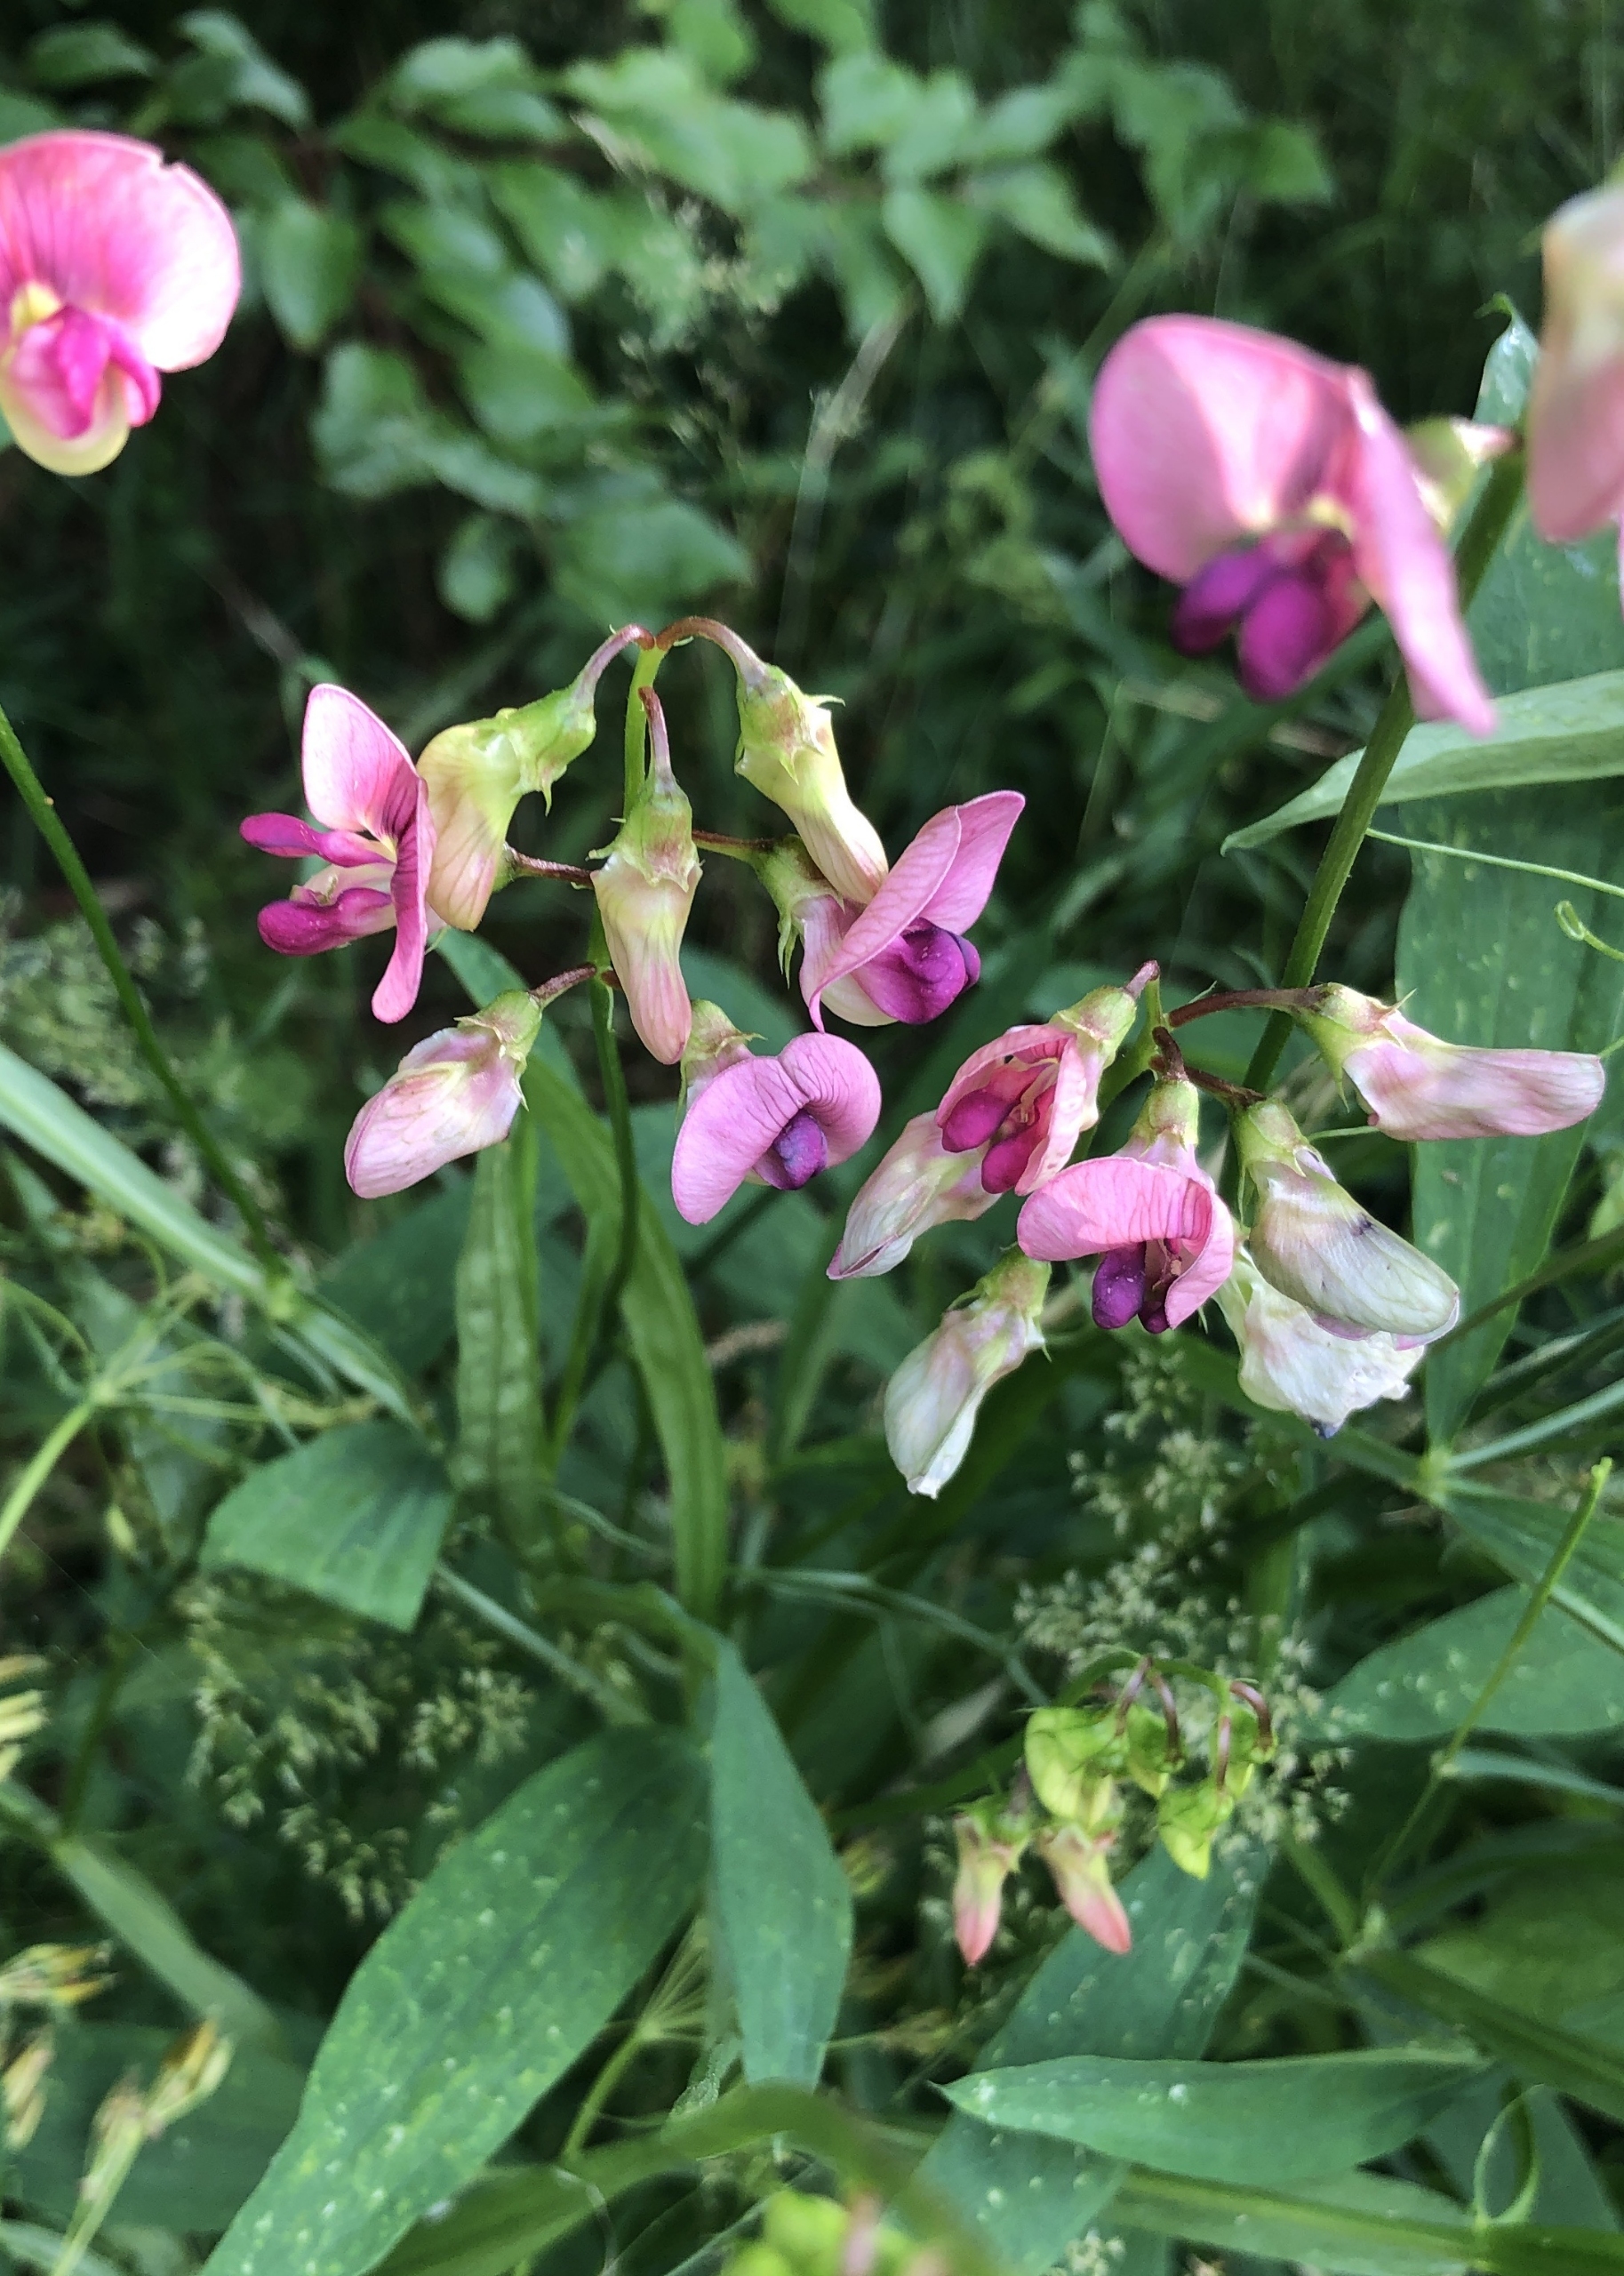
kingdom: Plantae
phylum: Tracheophyta
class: Magnoliopsida
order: Fabales
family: Fabaceae
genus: Lathyrus
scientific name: Lathyrus latifolius
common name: Flerårig ærteblomst
